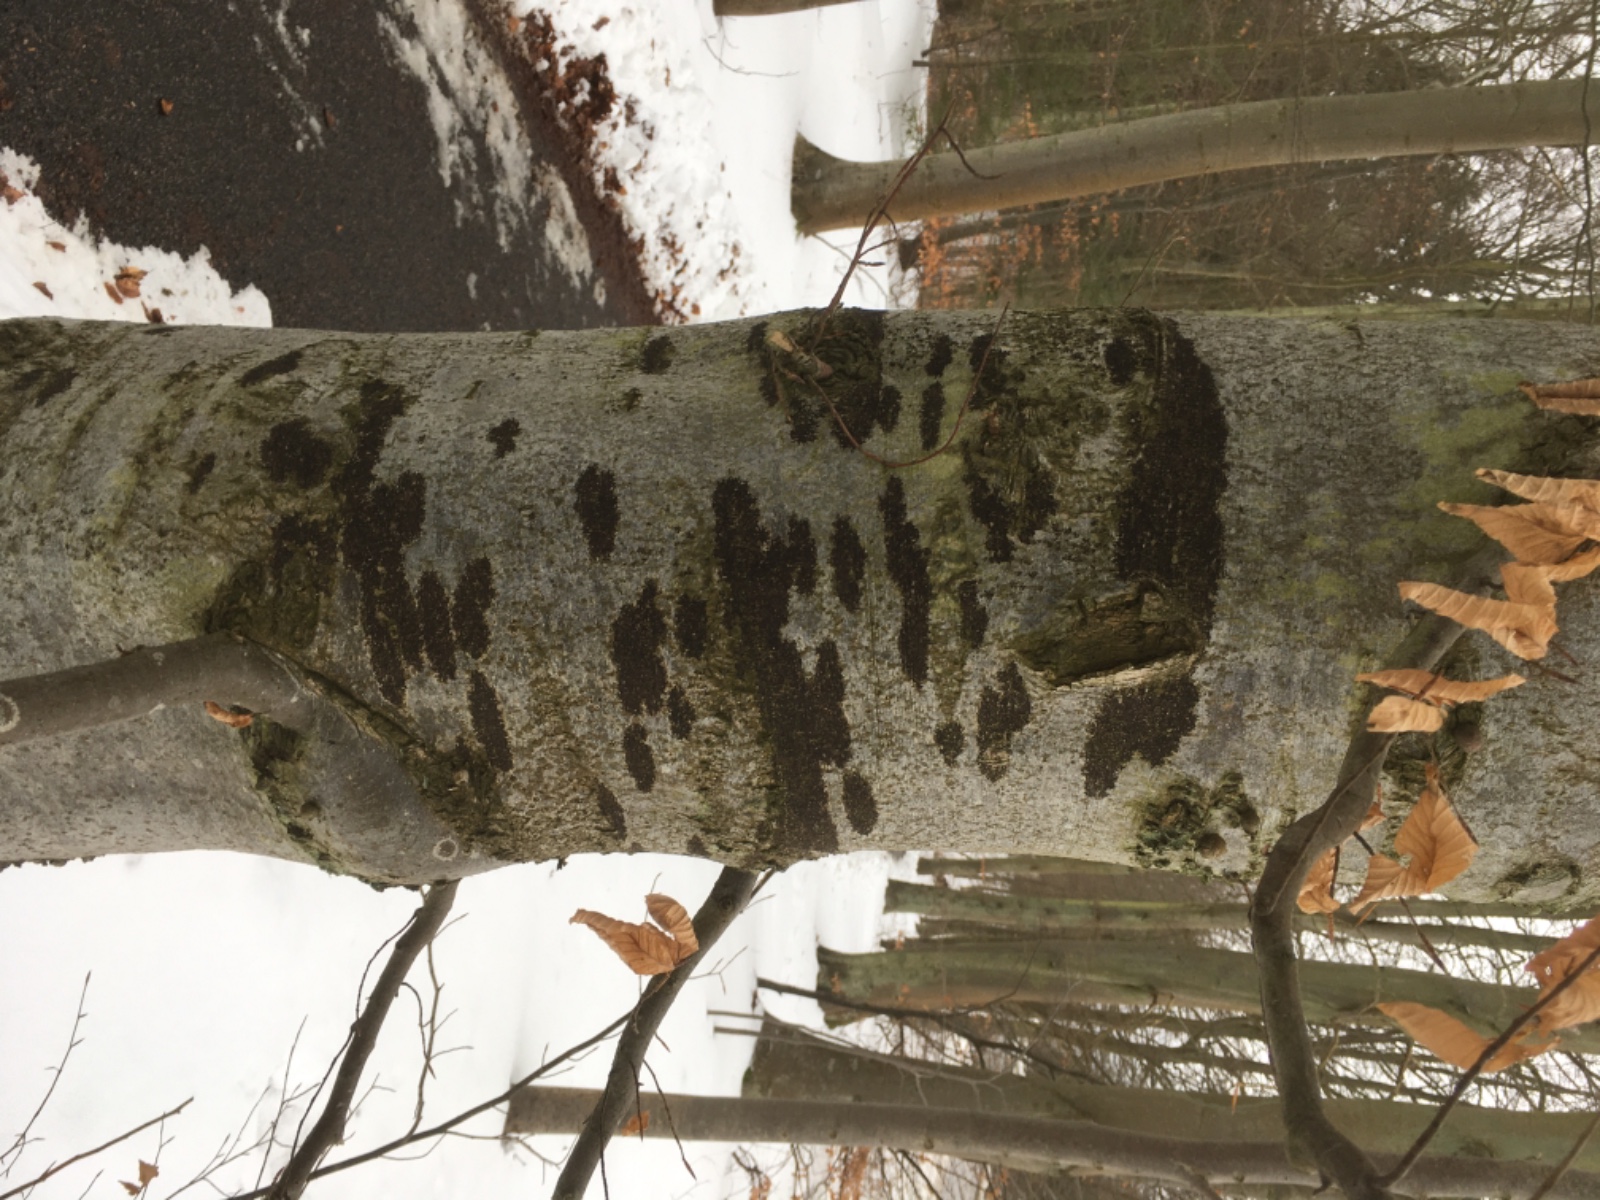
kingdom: Fungi
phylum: Ascomycota
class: Leotiomycetes
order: Rhytismatales
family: Ascodichaenaceae
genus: Ascodichaena
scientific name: Ascodichaena rugosa
